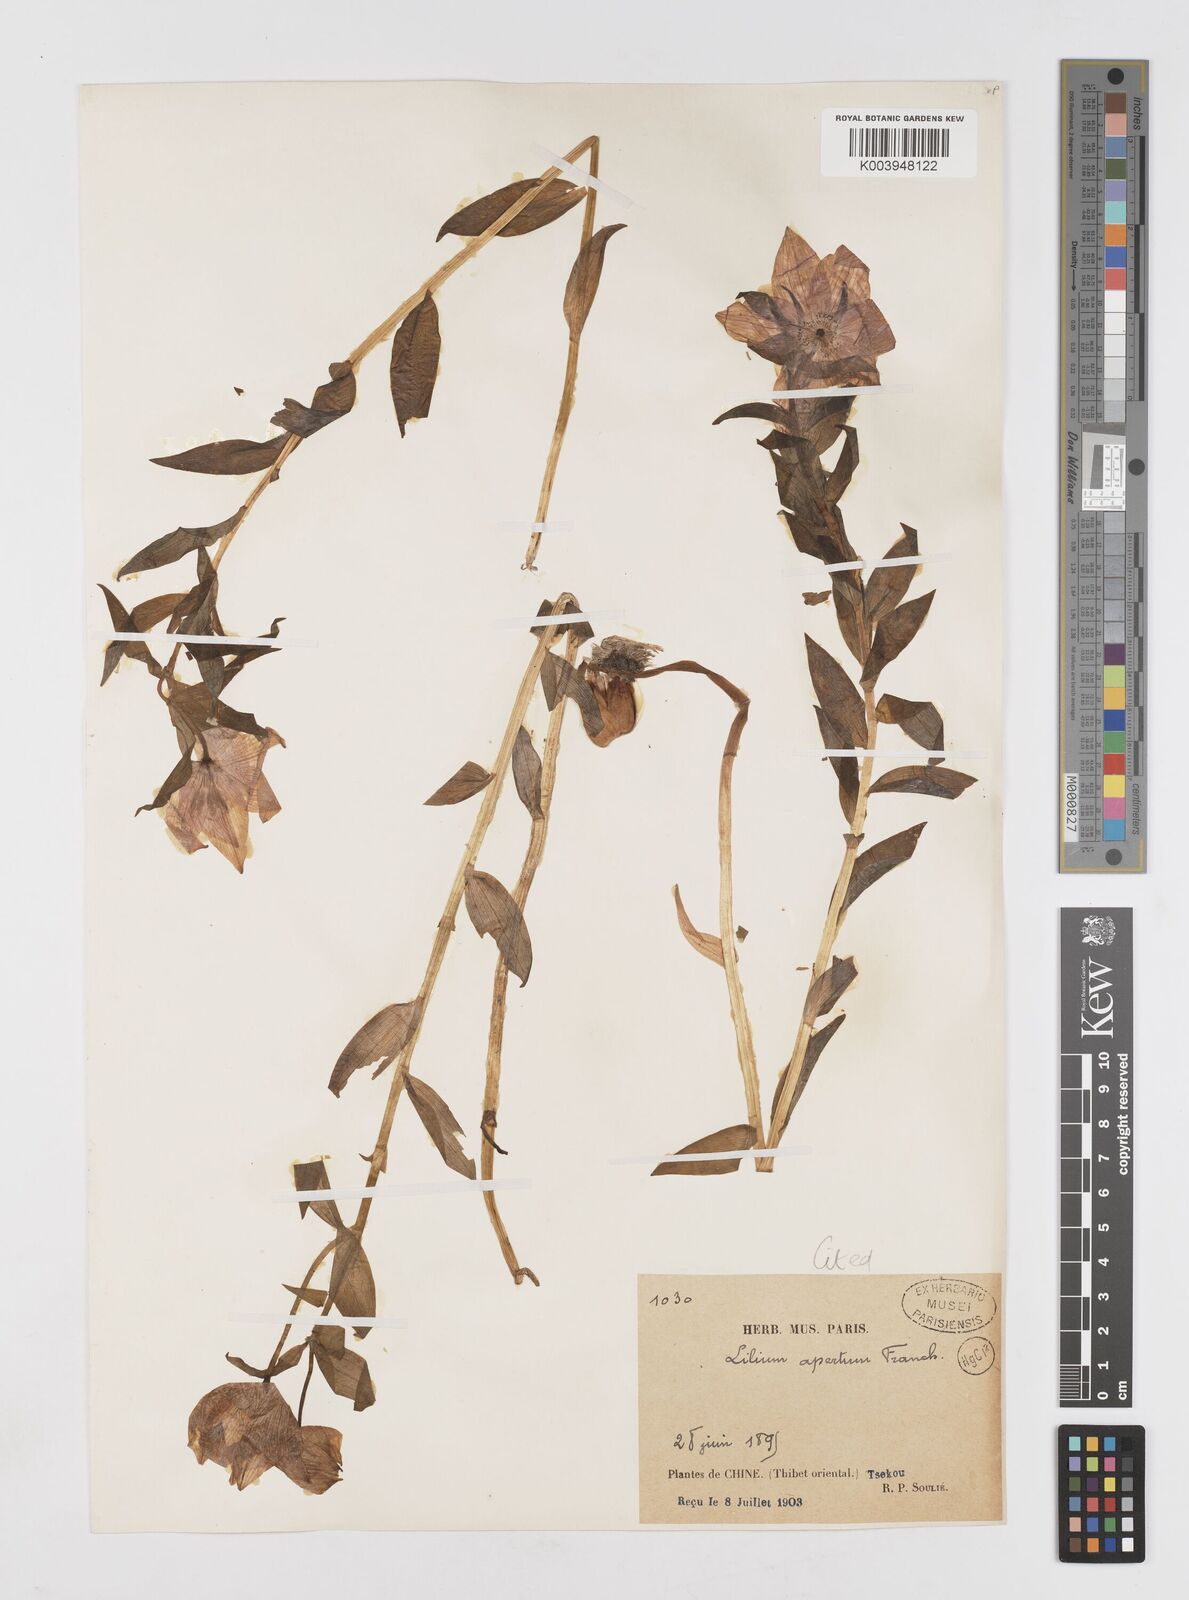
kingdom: Plantae
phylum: Tracheophyta
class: Liliopsida
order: Liliales
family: Liliaceae
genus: Lilium
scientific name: Lilium saluenense
